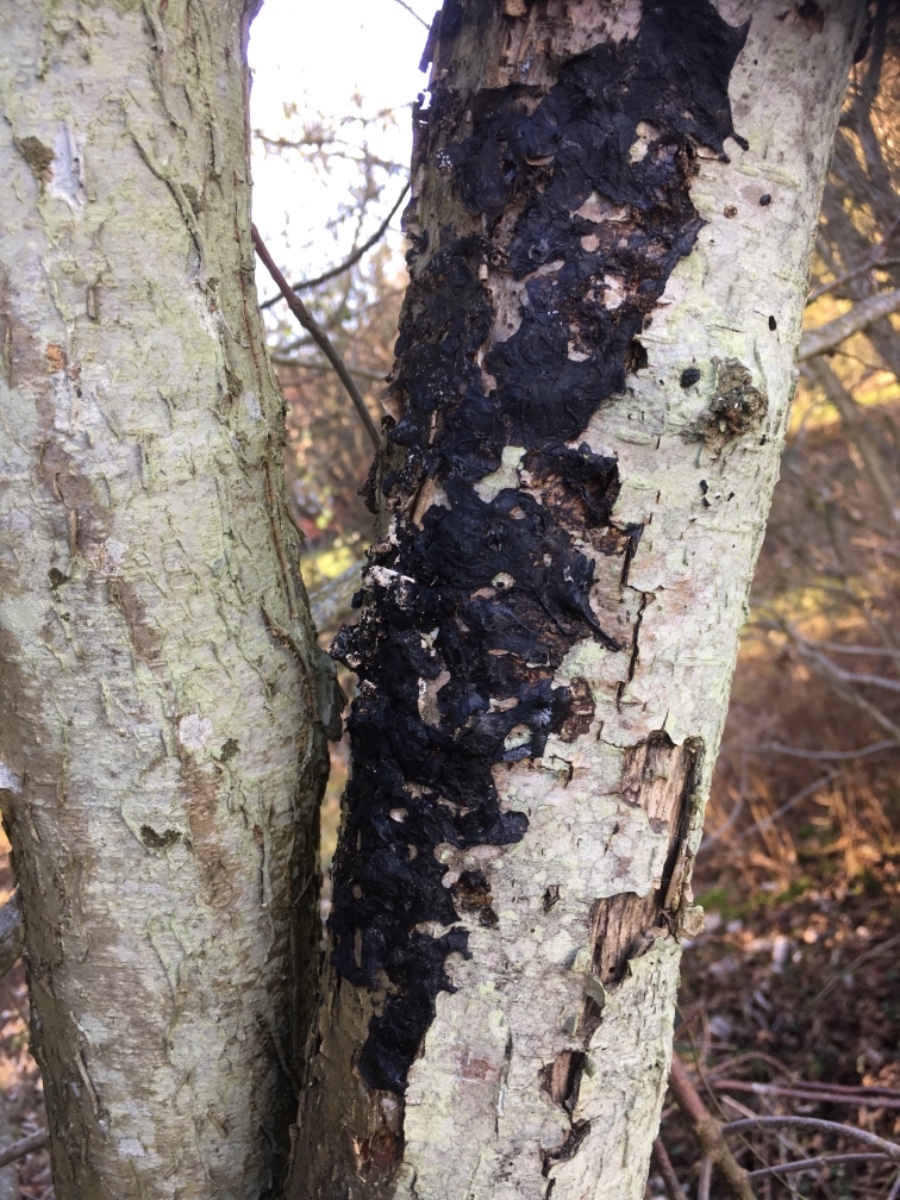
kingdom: Fungi
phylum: Basidiomycota
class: Agaricomycetes
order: Auriculariales
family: Auriculariaceae
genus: Exidia
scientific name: Exidia nigricans
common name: almindelig bævretop
